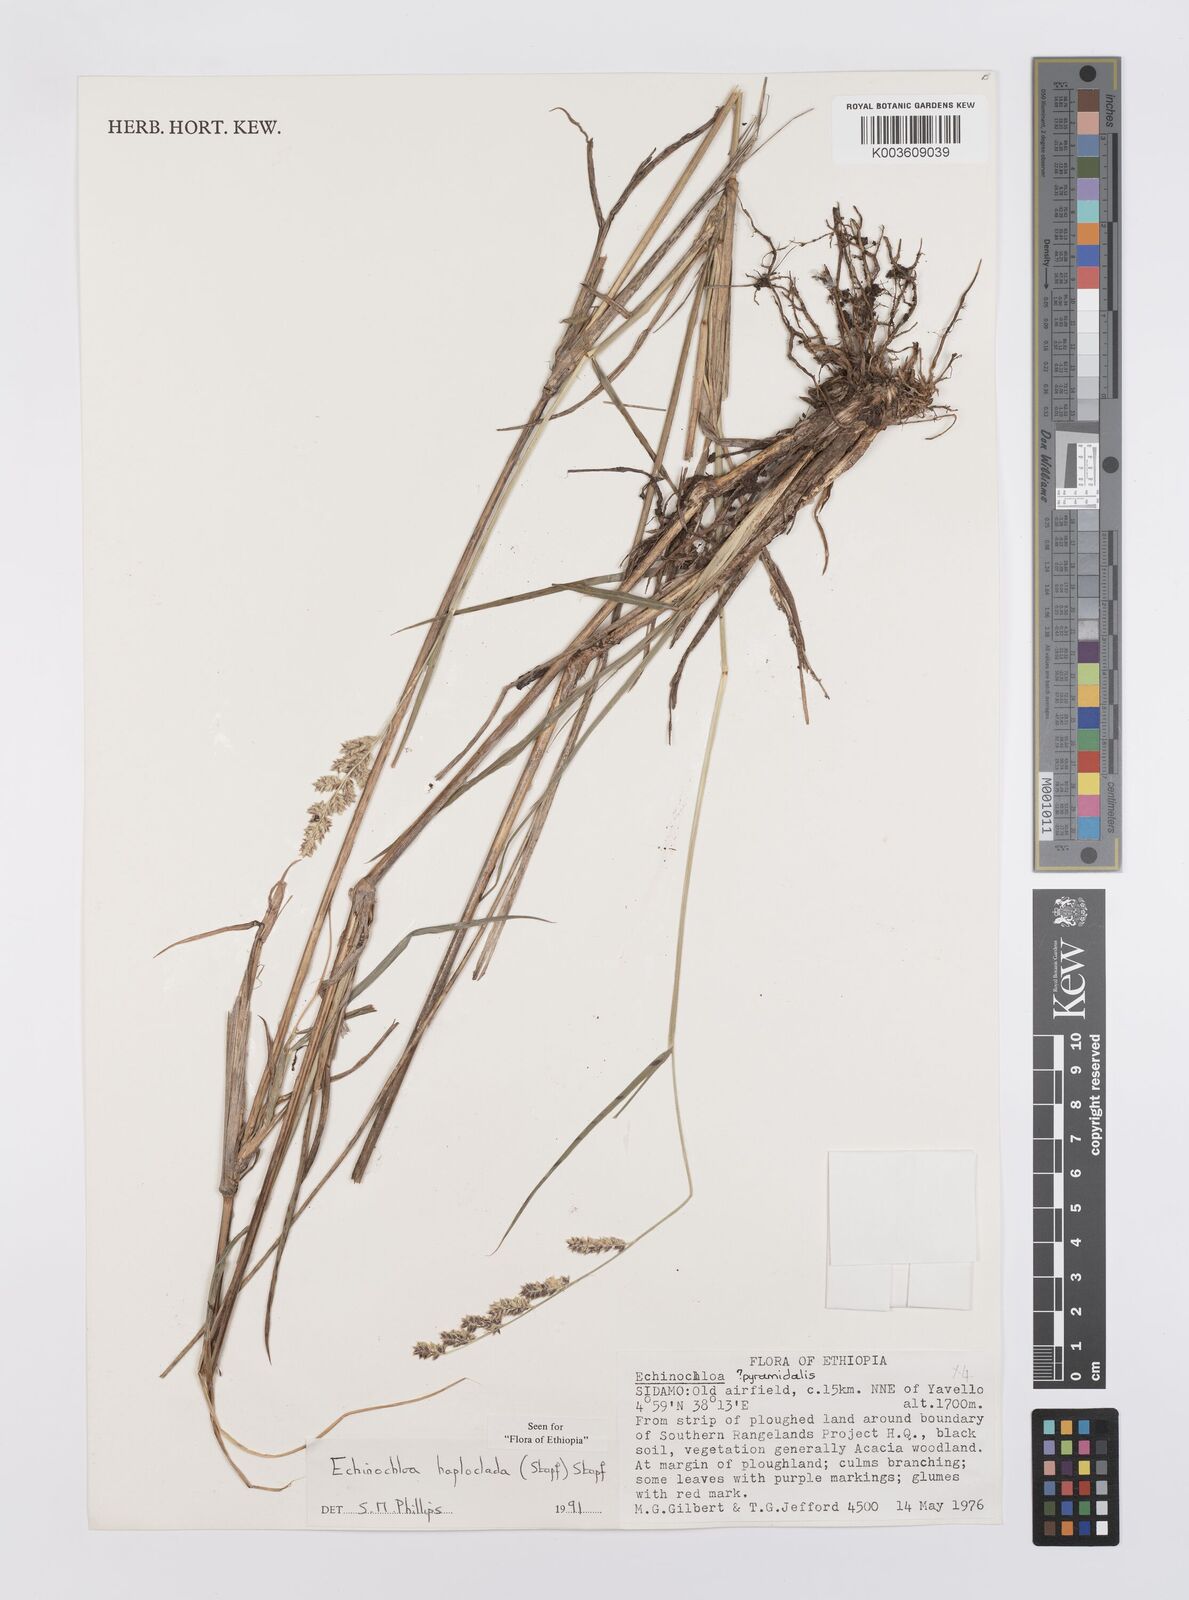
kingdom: Plantae
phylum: Tracheophyta
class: Liliopsida
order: Poales
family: Poaceae
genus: Echinochloa
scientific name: Echinochloa haploclada
